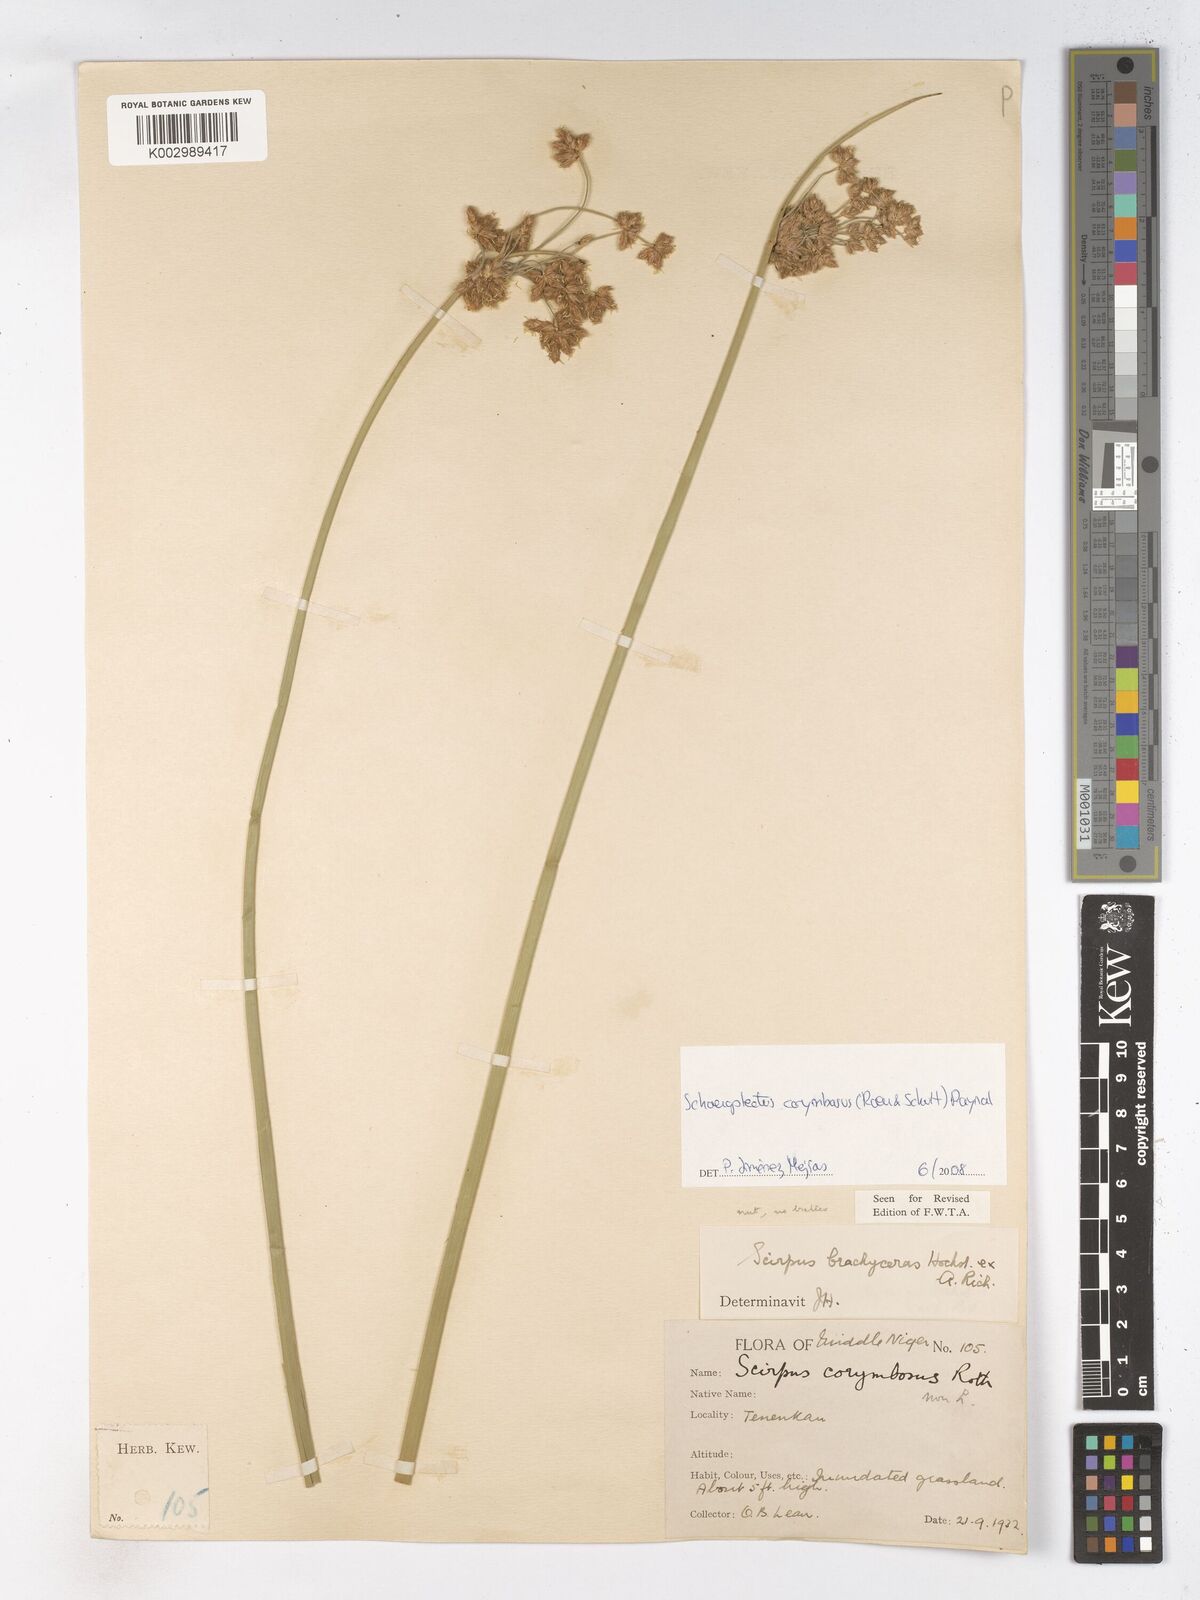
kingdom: Plantae
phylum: Tracheophyta
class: Liliopsida
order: Poales
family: Cyperaceae
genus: Schoenoplectiella
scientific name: Schoenoplectiella corymbosa
